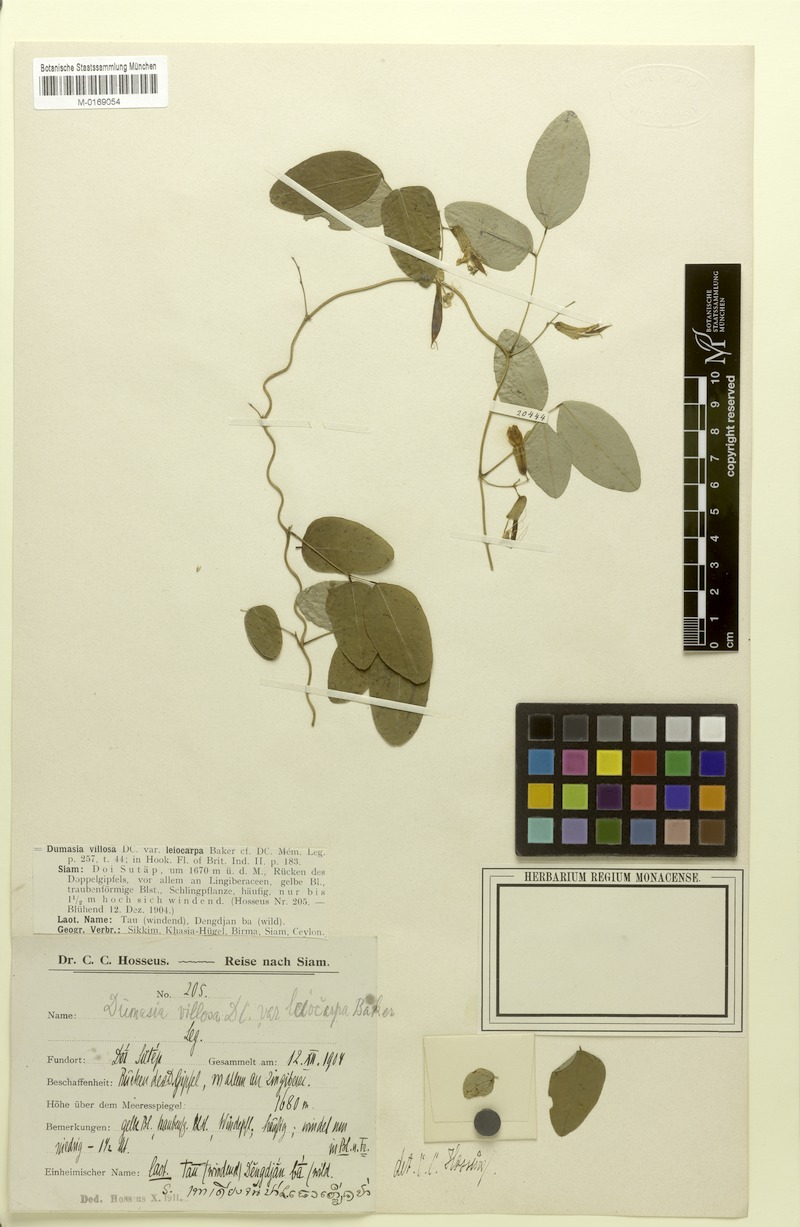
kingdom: Plantae
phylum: Tracheophyta
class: Magnoliopsida
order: Fabales
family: Fabaceae
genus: Dumasia
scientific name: Dumasia villosa
